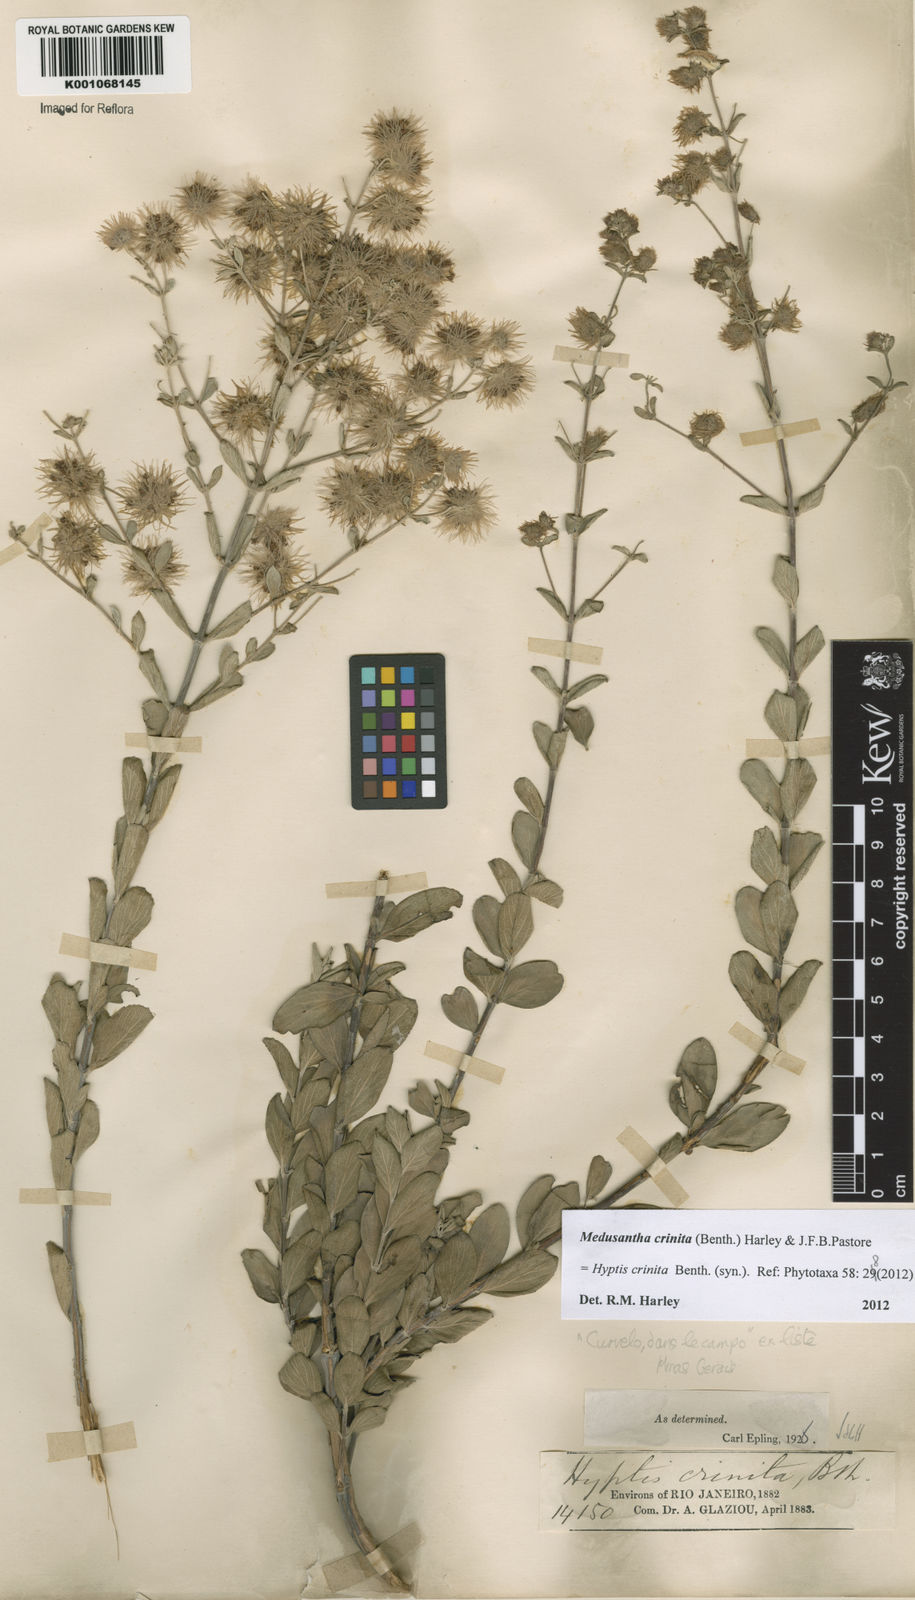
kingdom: Plantae
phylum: Tracheophyta
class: Magnoliopsida
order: Lamiales
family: Lamiaceae
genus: Medusantha
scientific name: Medusantha crinita
